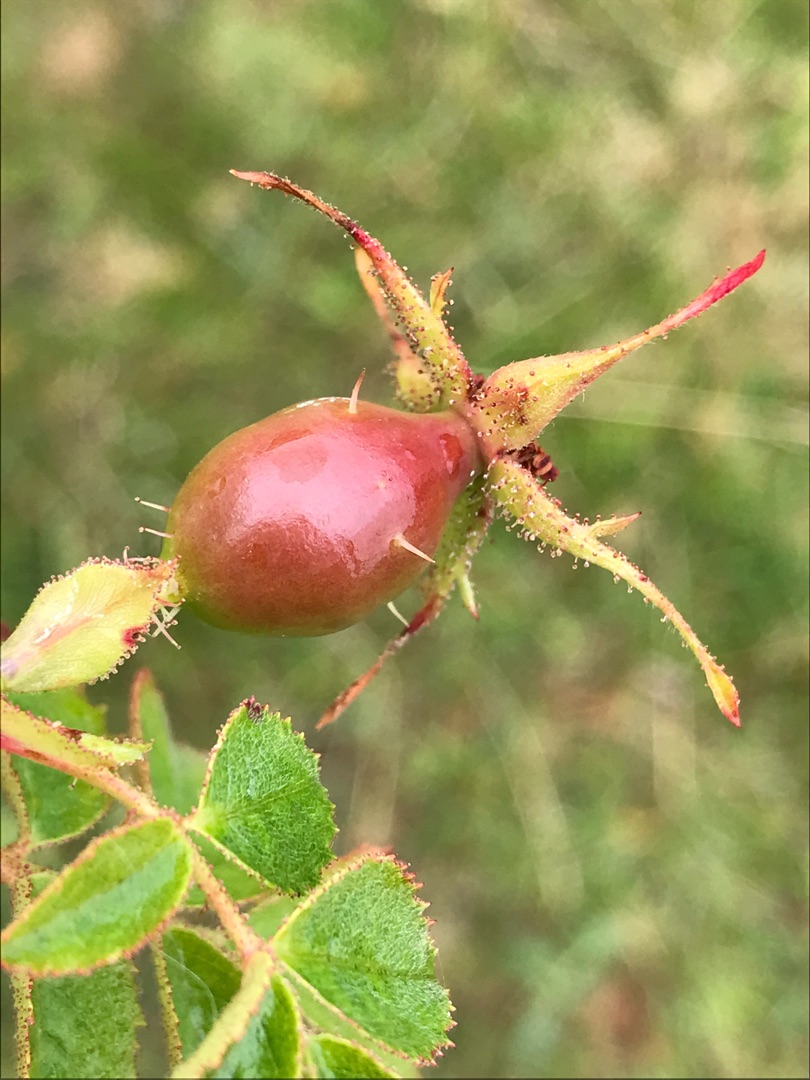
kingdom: Plantae
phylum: Tracheophyta
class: Magnoliopsida
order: Rosales
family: Rosaceae
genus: Rosa
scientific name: Rosa rubiginosa
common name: Æble-rose
